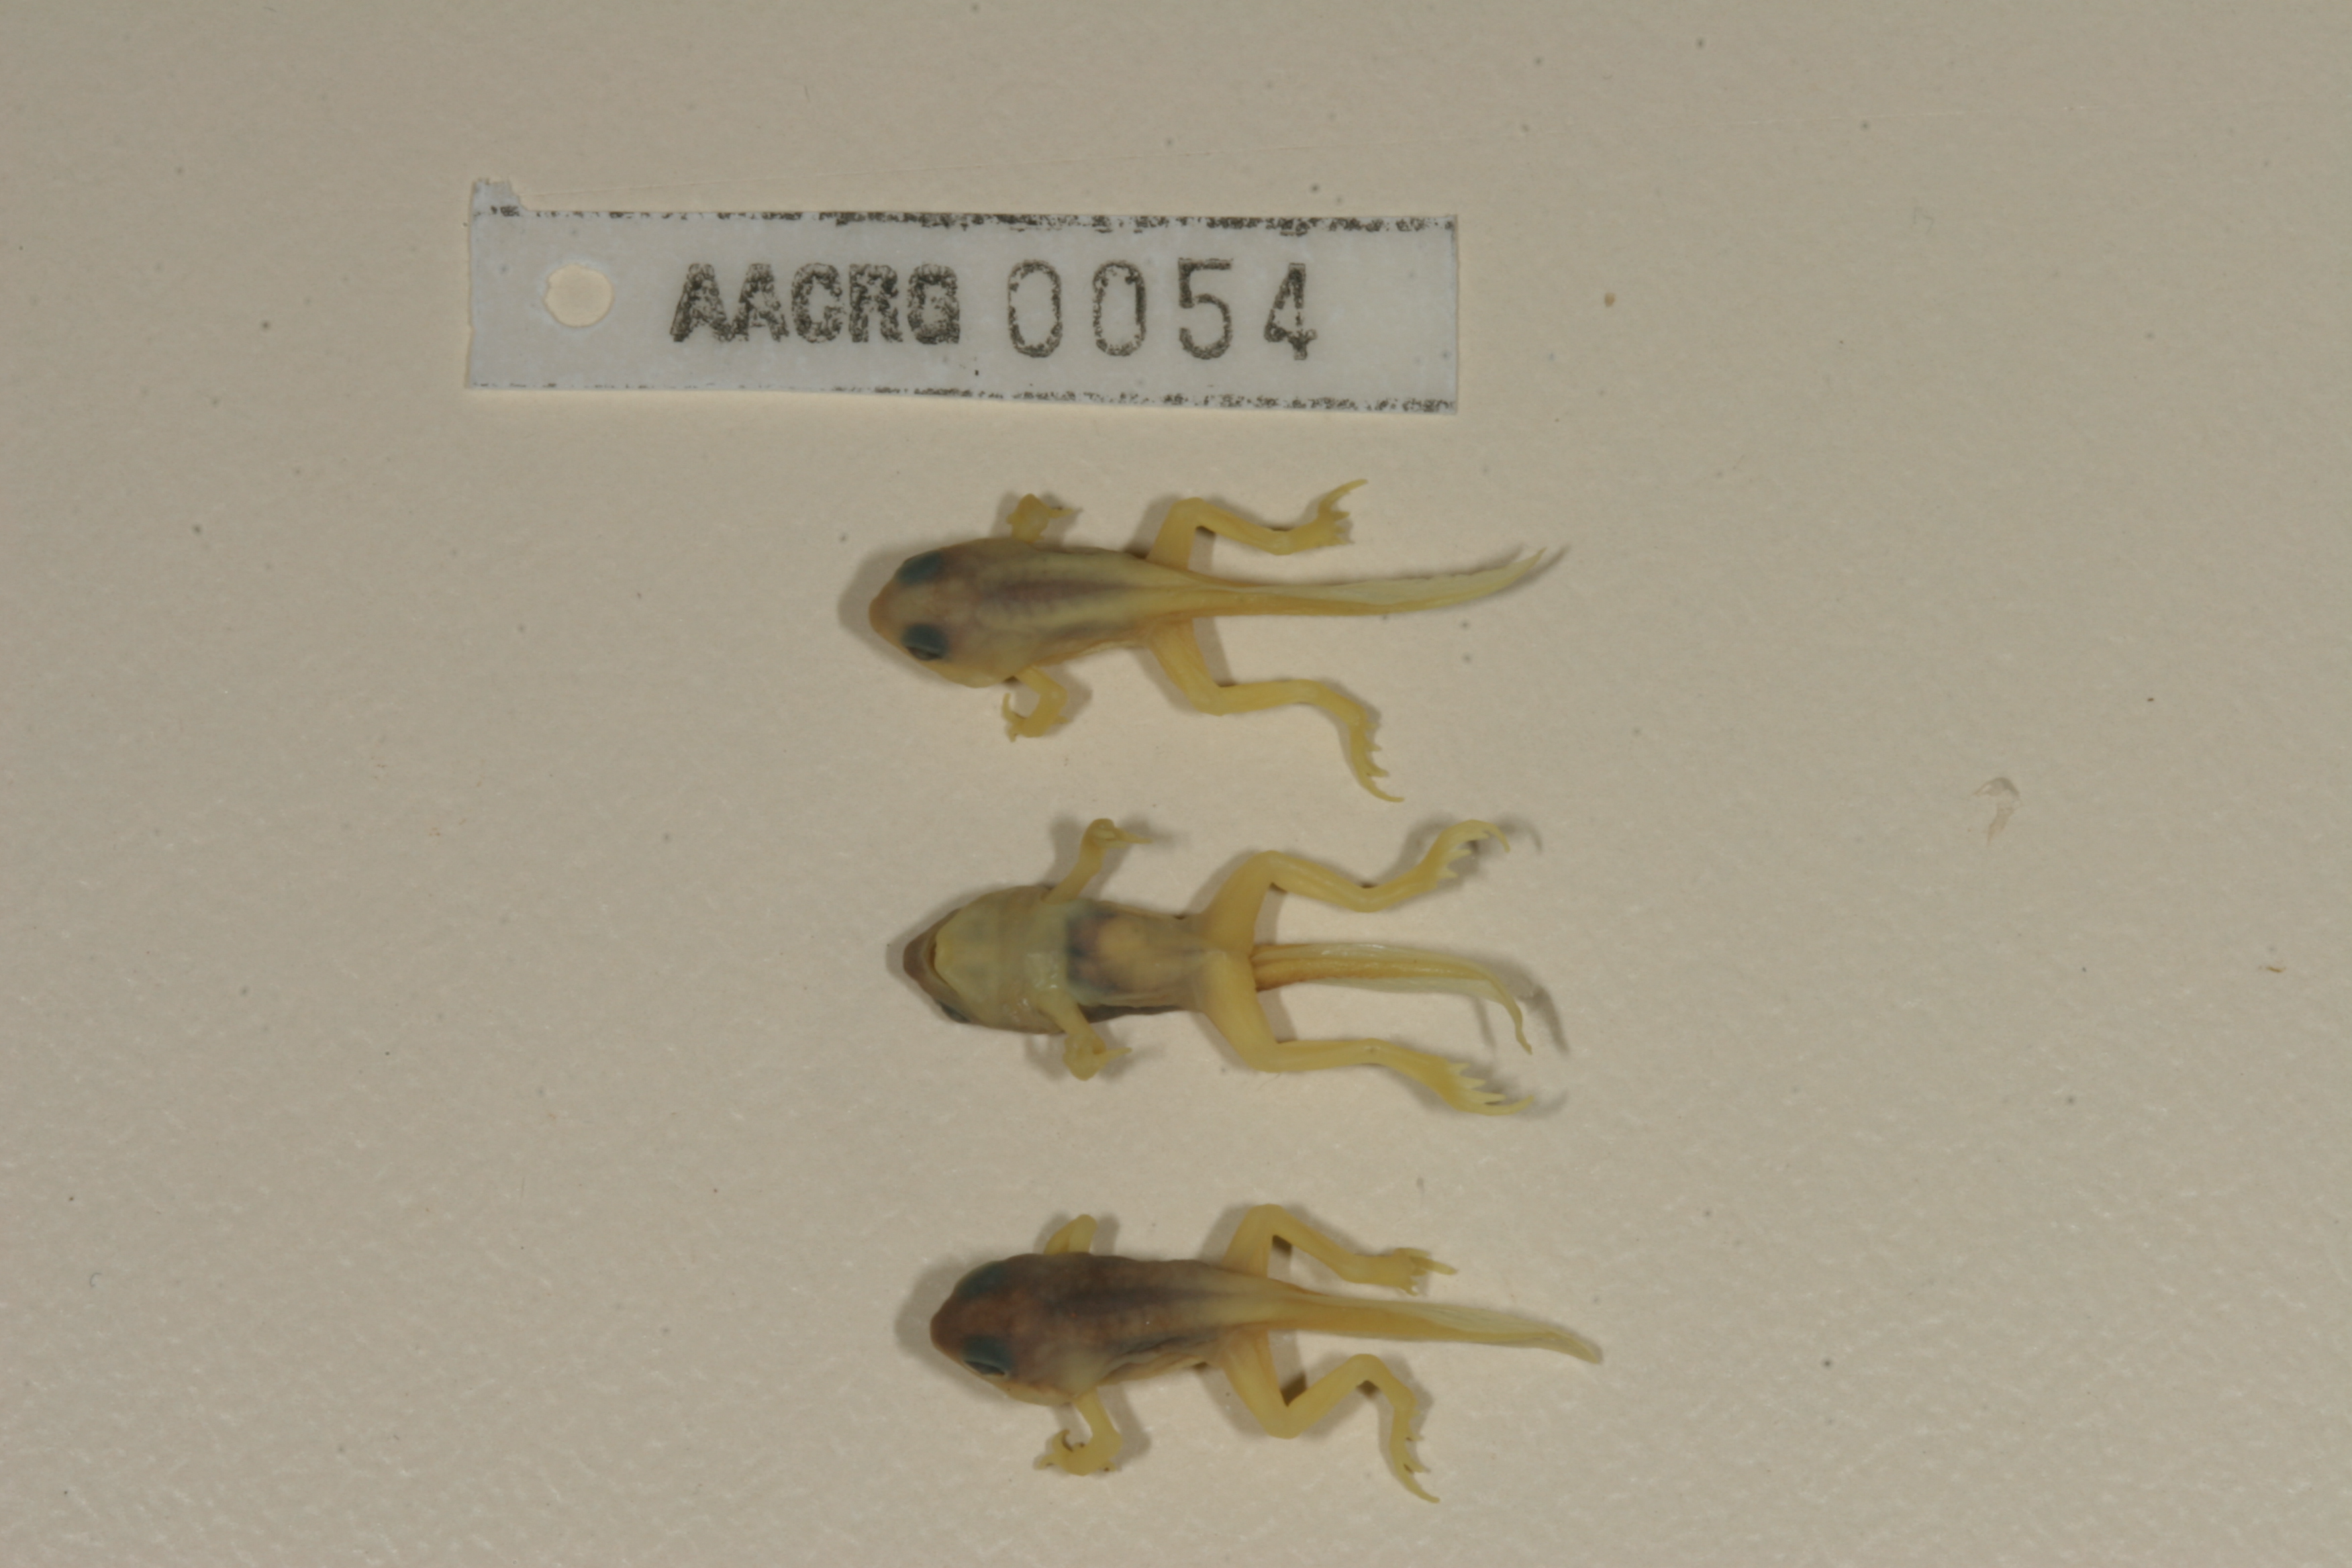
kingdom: Animalia
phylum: Chordata
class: Amphibia
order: Anura
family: Bufonidae
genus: Sclerophrys
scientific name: Sclerophrys gutturalis
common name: African common toad
